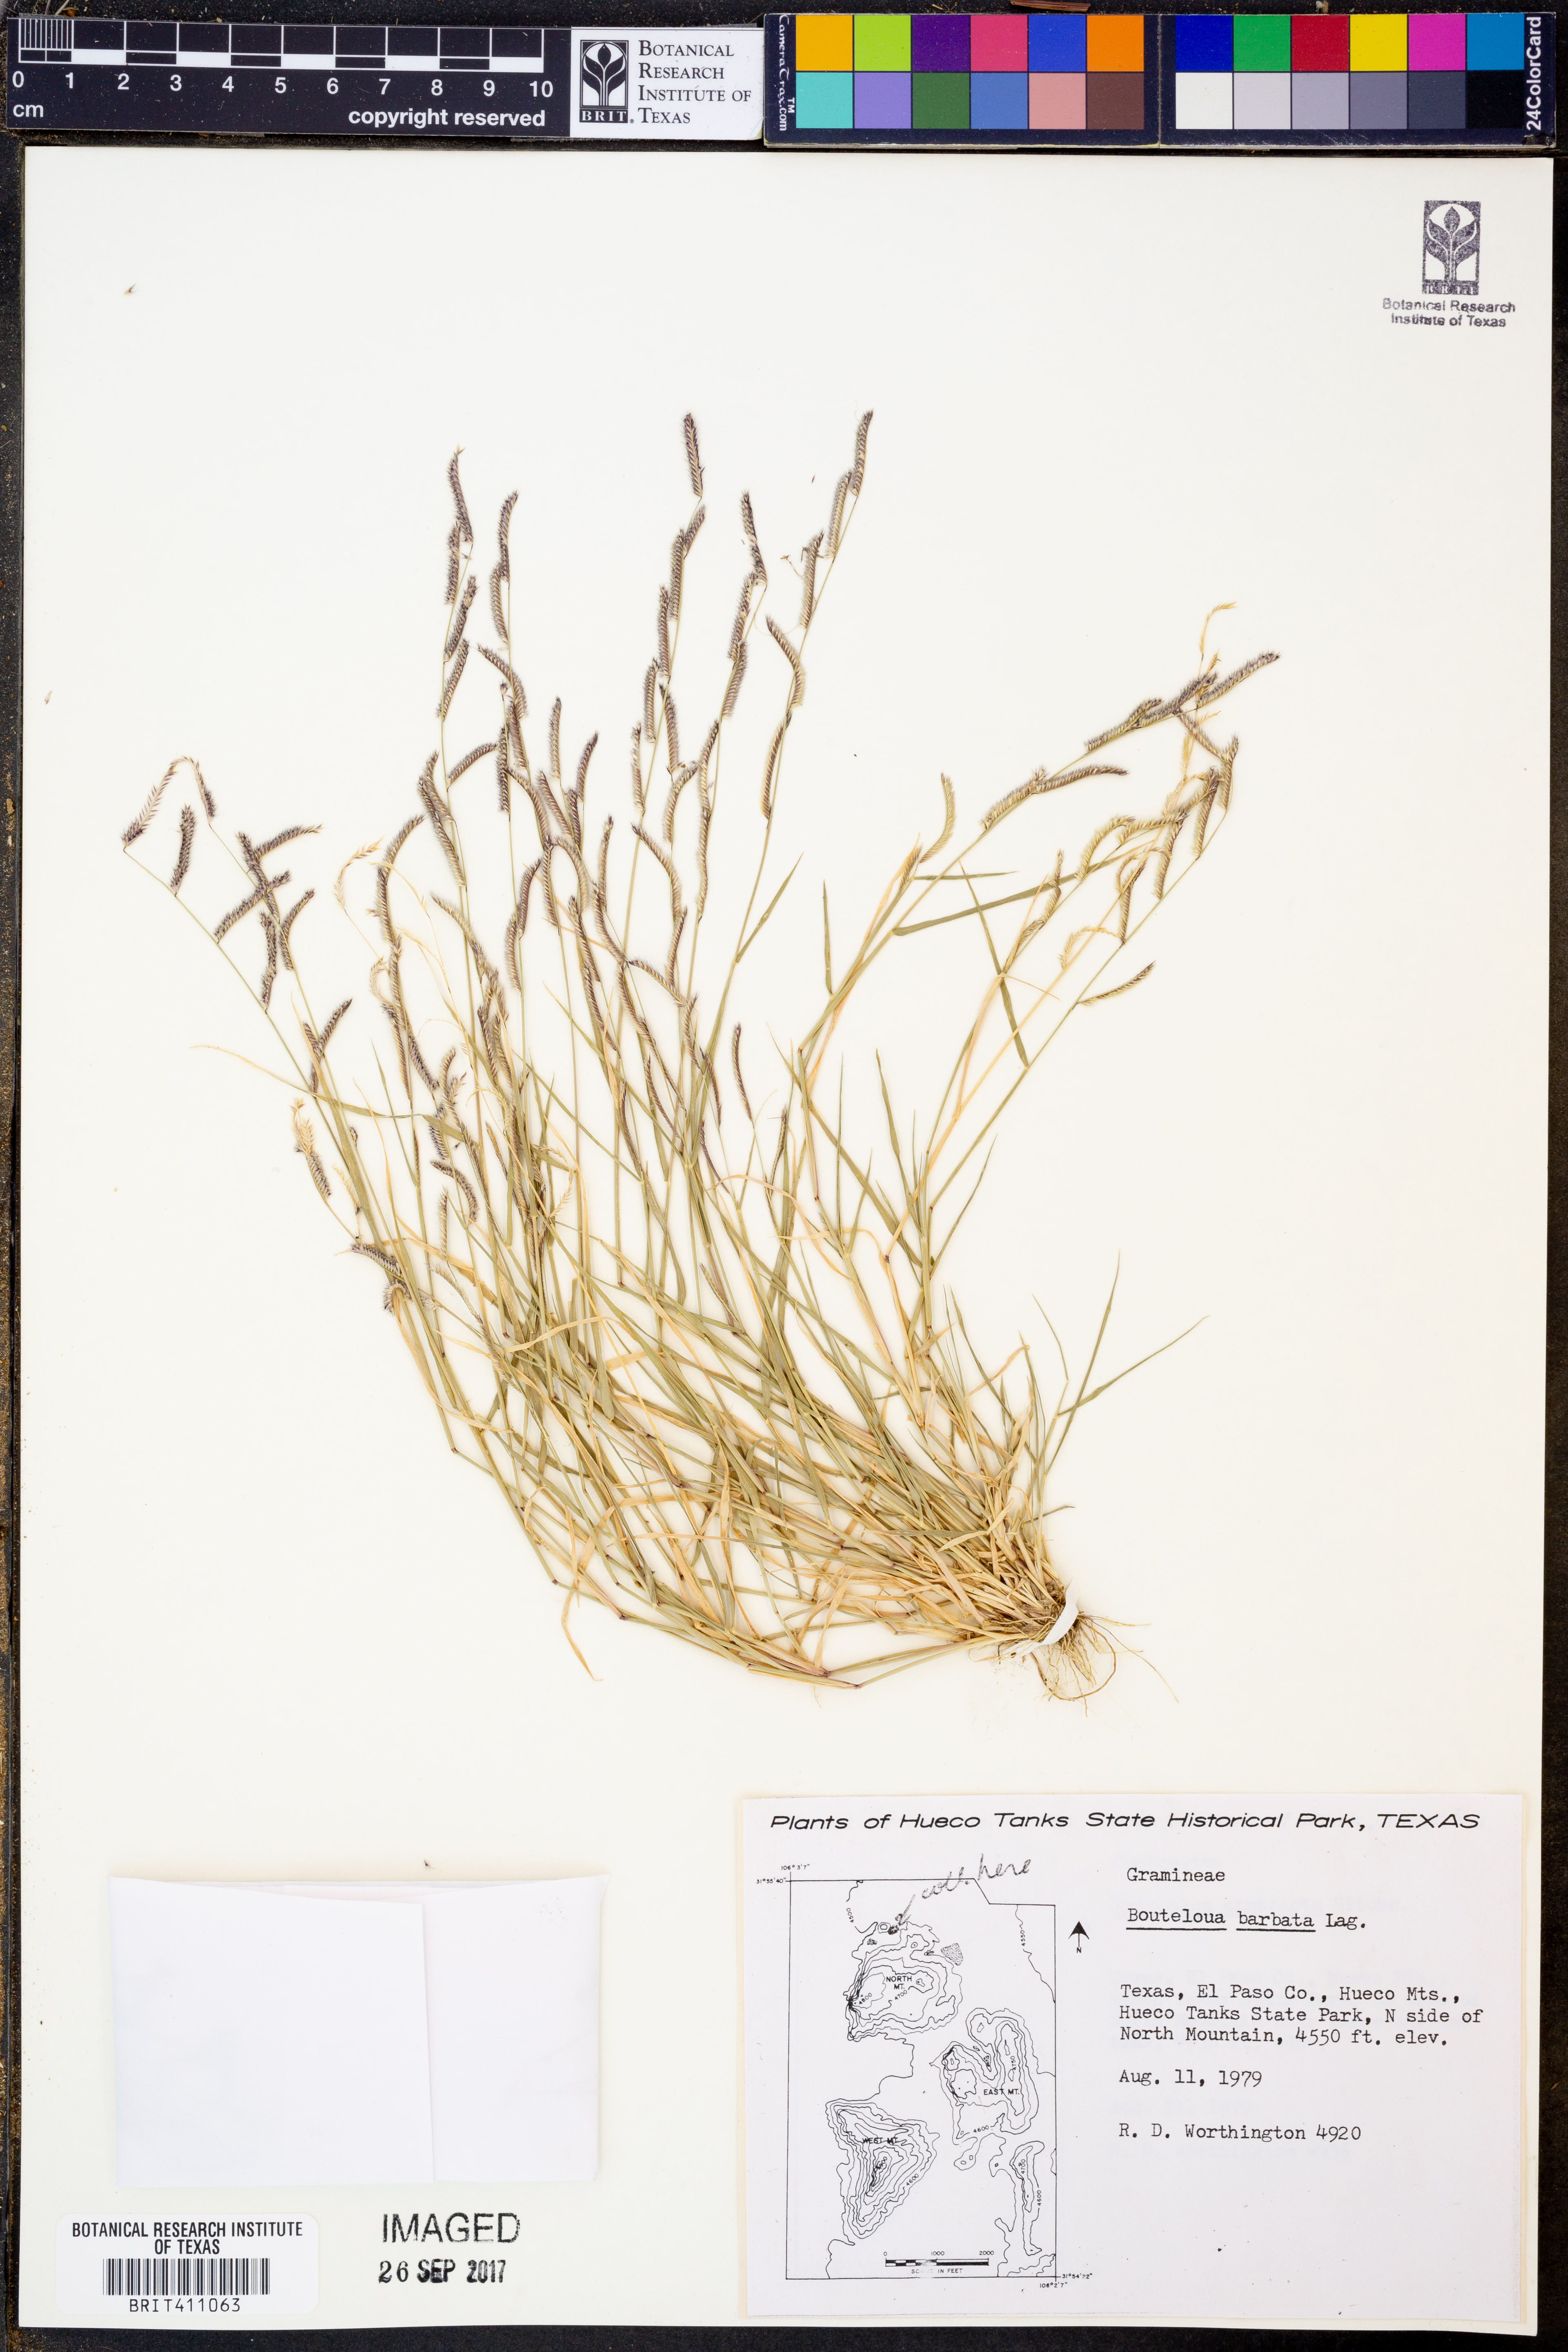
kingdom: Plantae
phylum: Tracheophyta
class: Liliopsida
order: Poales
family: Poaceae
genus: Bouteloua
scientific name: Bouteloua barbata
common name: Six-weeks grama
